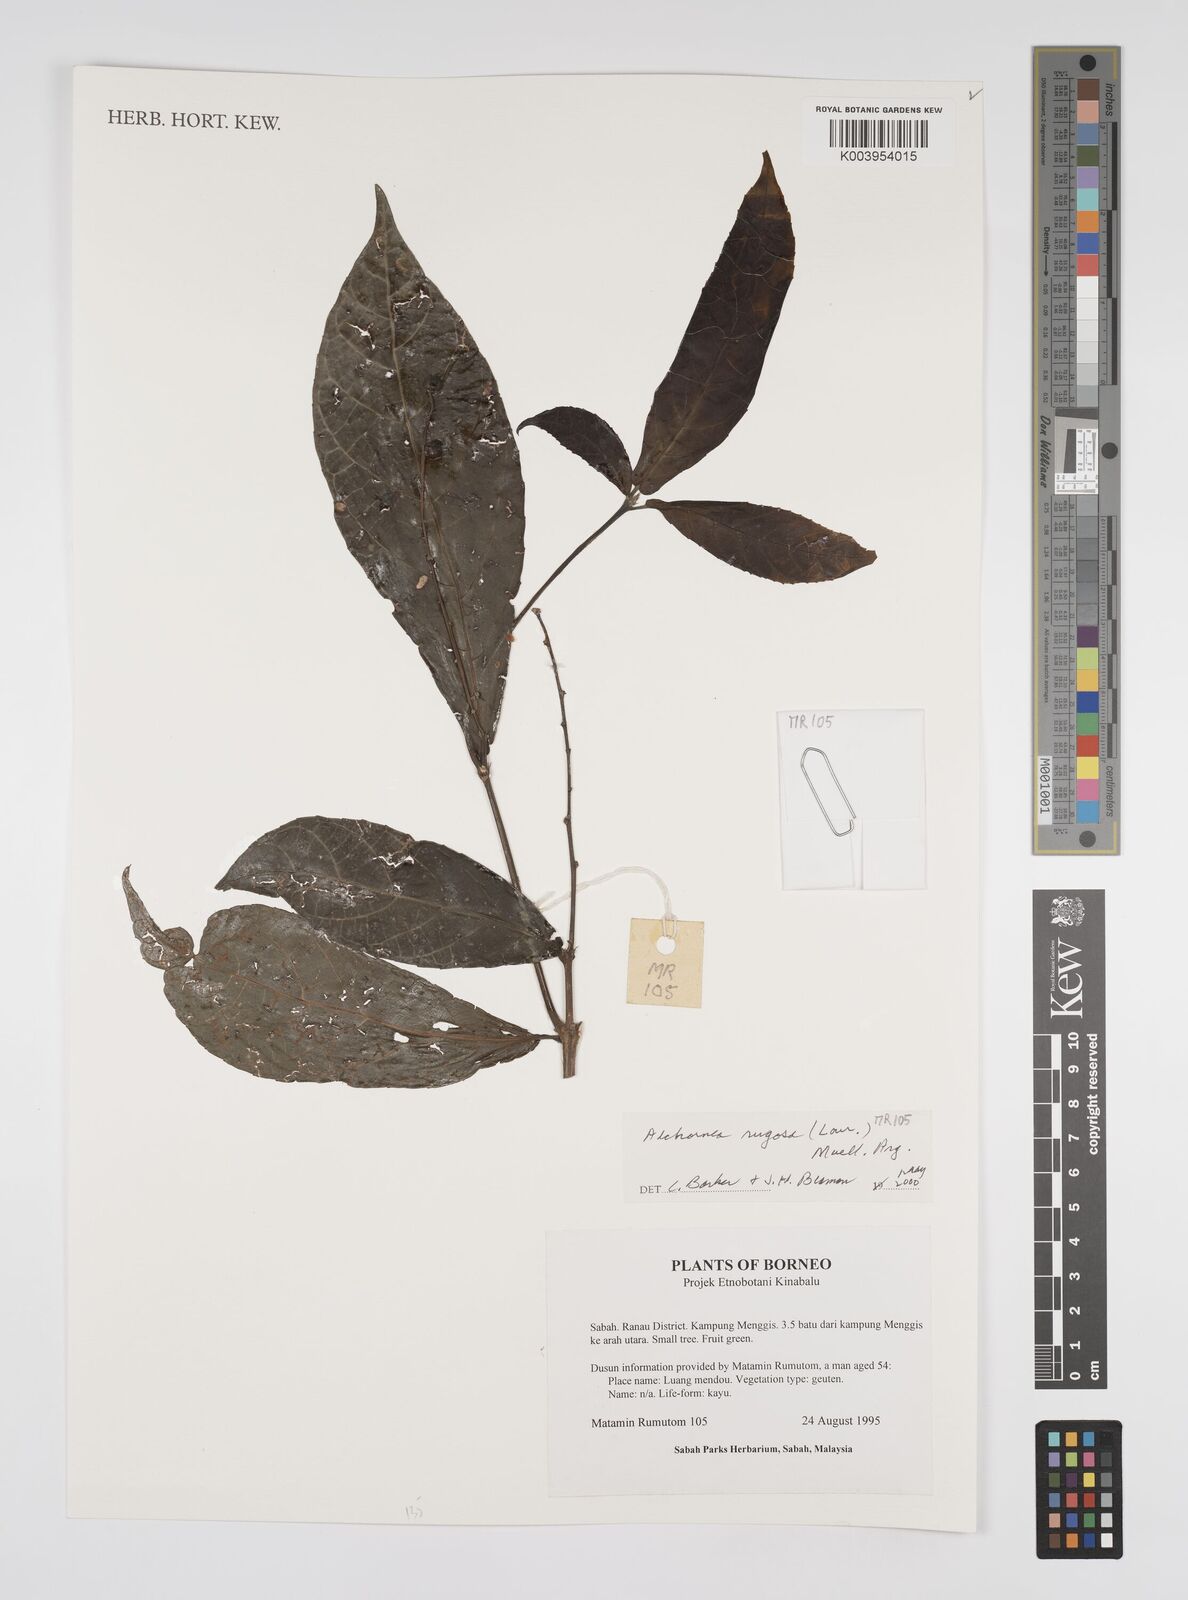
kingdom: Plantae
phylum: Tracheophyta
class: Magnoliopsida
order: Malpighiales
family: Euphorbiaceae
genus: Alchornea
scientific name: Alchornea rugosa
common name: Alchorntree
